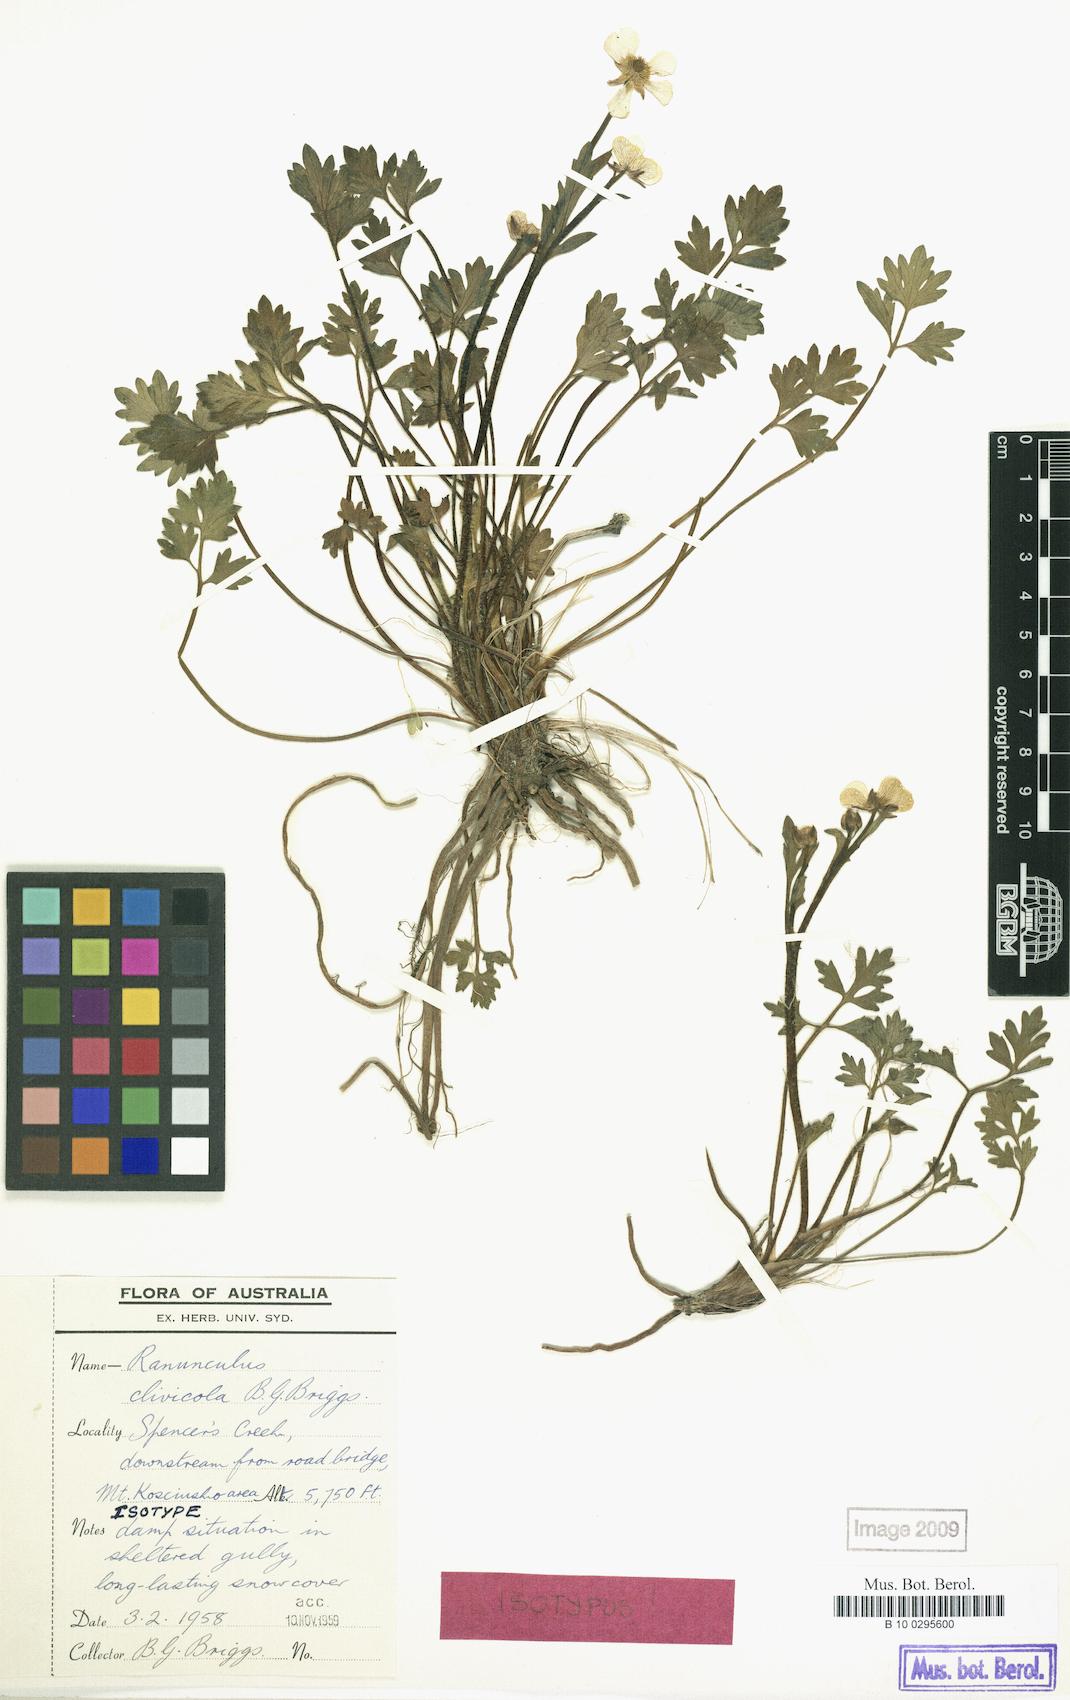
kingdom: Plantae
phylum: Tracheophyta
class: Magnoliopsida
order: Ranunculales
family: Ranunculaceae
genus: Ranunculus
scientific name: Ranunculus clivicola
